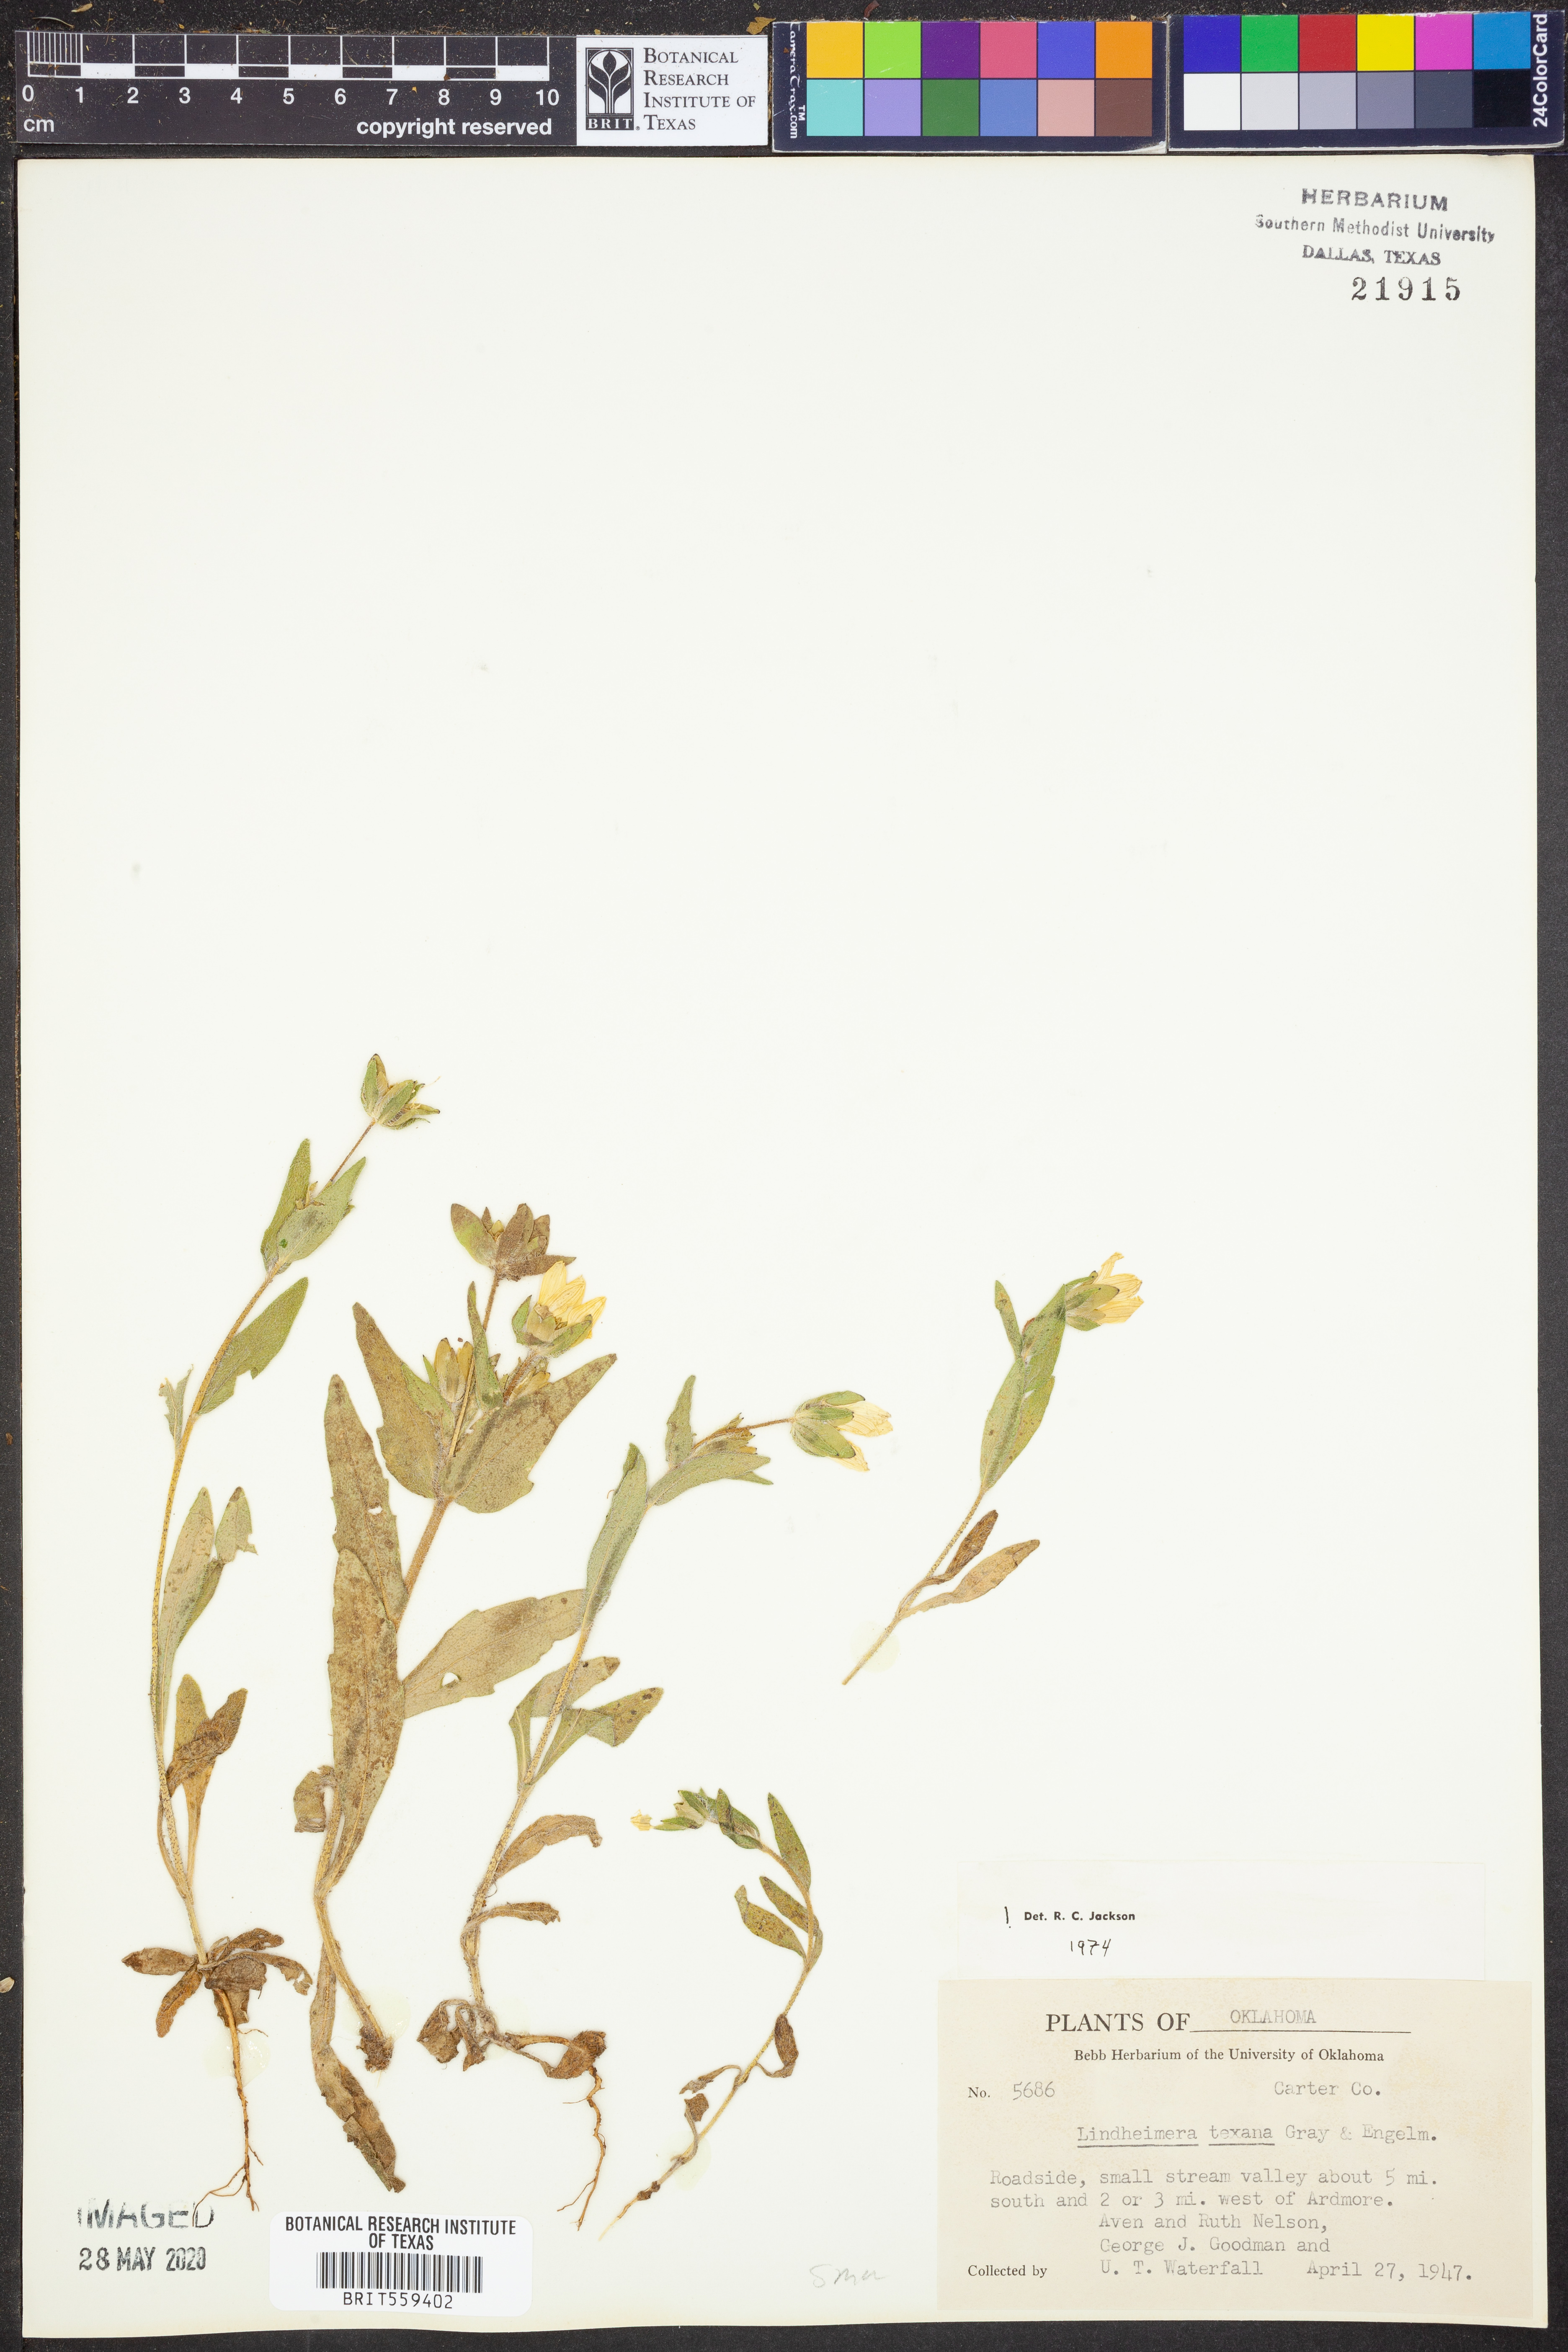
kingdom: Plantae
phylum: Tracheophyta
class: Magnoliopsida
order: Asterales
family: Asteraceae
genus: Lindheimera
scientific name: Lindheimera texana
